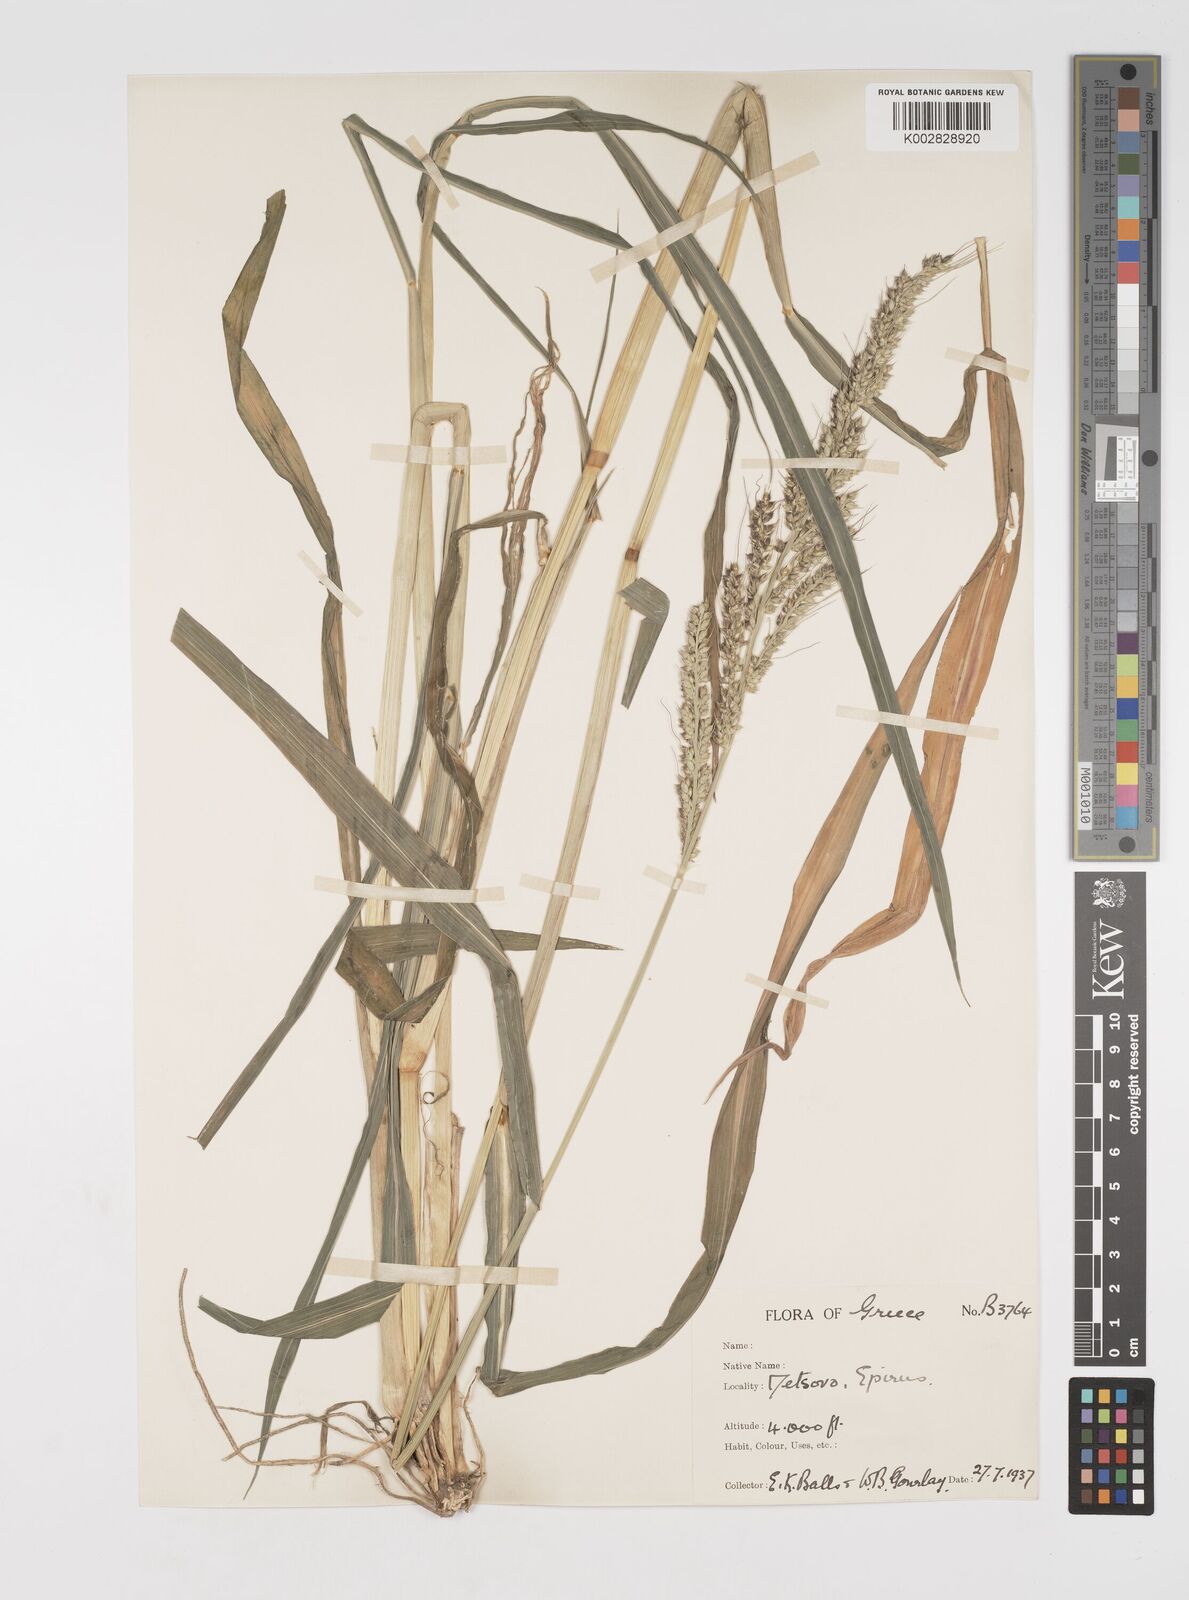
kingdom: Plantae
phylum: Tracheophyta
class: Liliopsida
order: Poales
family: Poaceae
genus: Echinochloa
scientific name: Echinochloa crus-galli
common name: Cockspur
